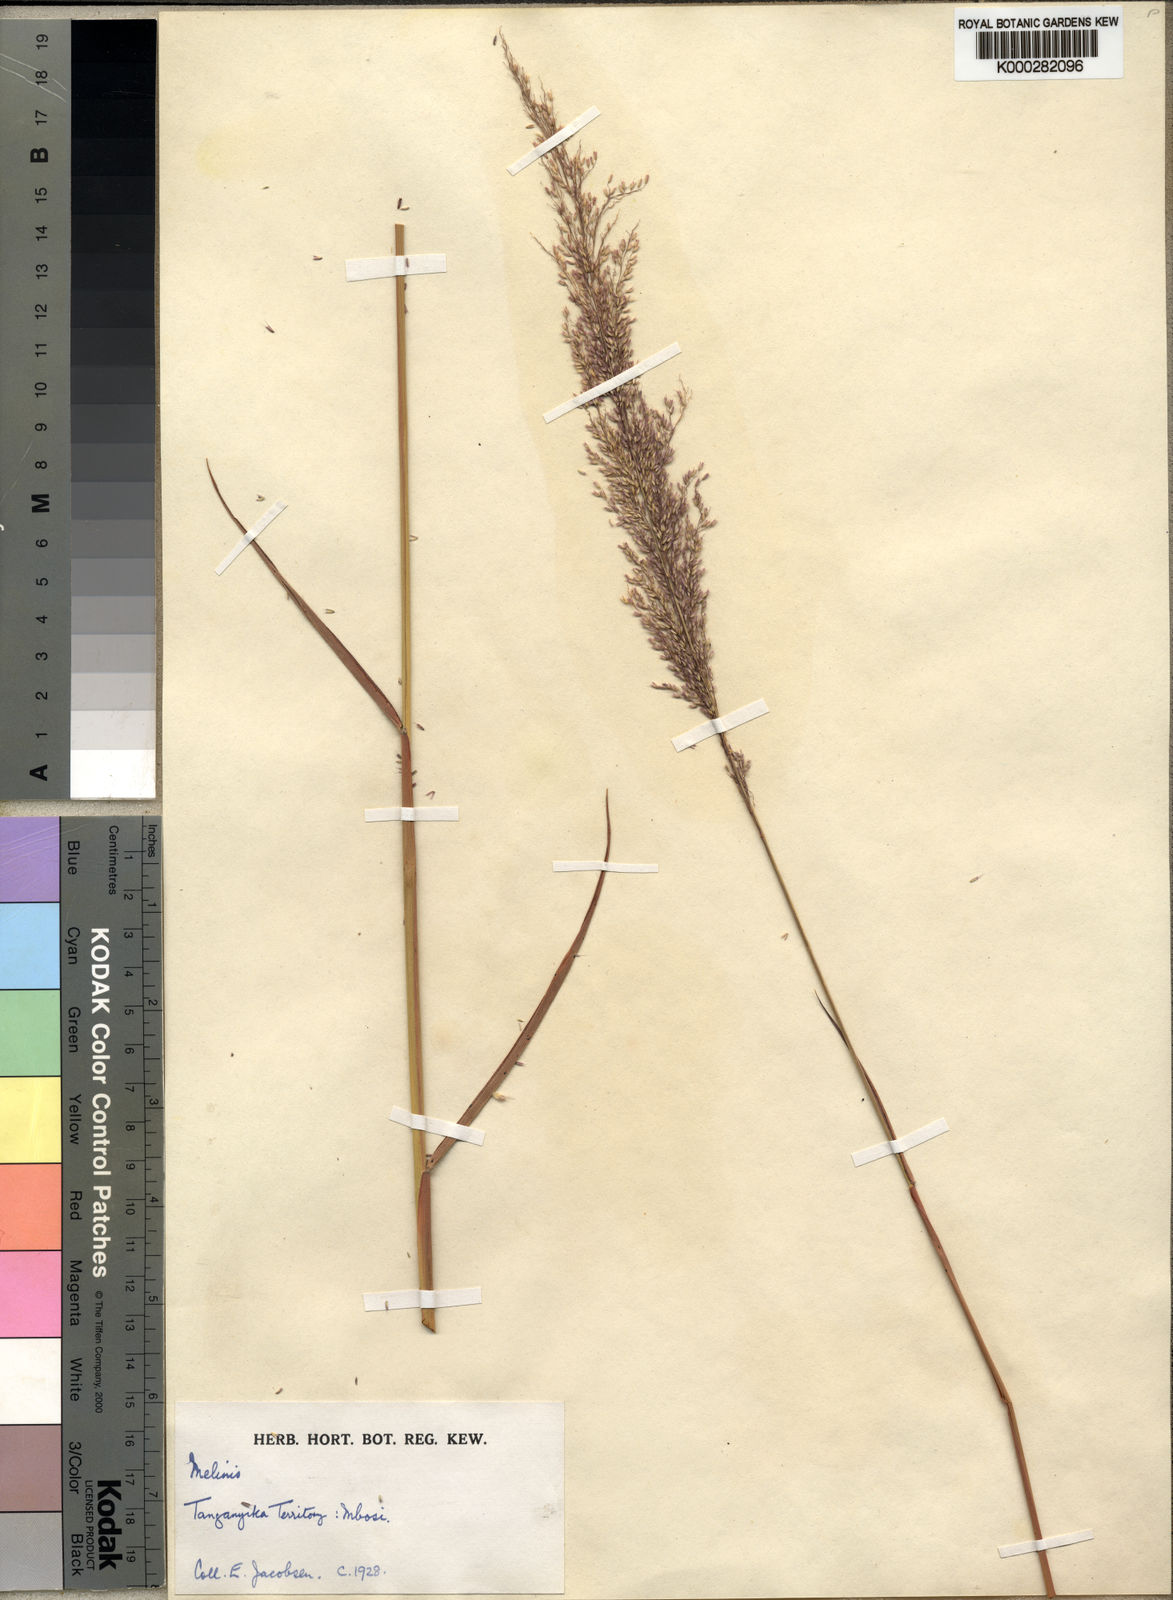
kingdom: Plantae
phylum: Tracheophyta
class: Liliopsida
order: Poales
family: Poaceae
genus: Melinis
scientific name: Melinis ambigua
